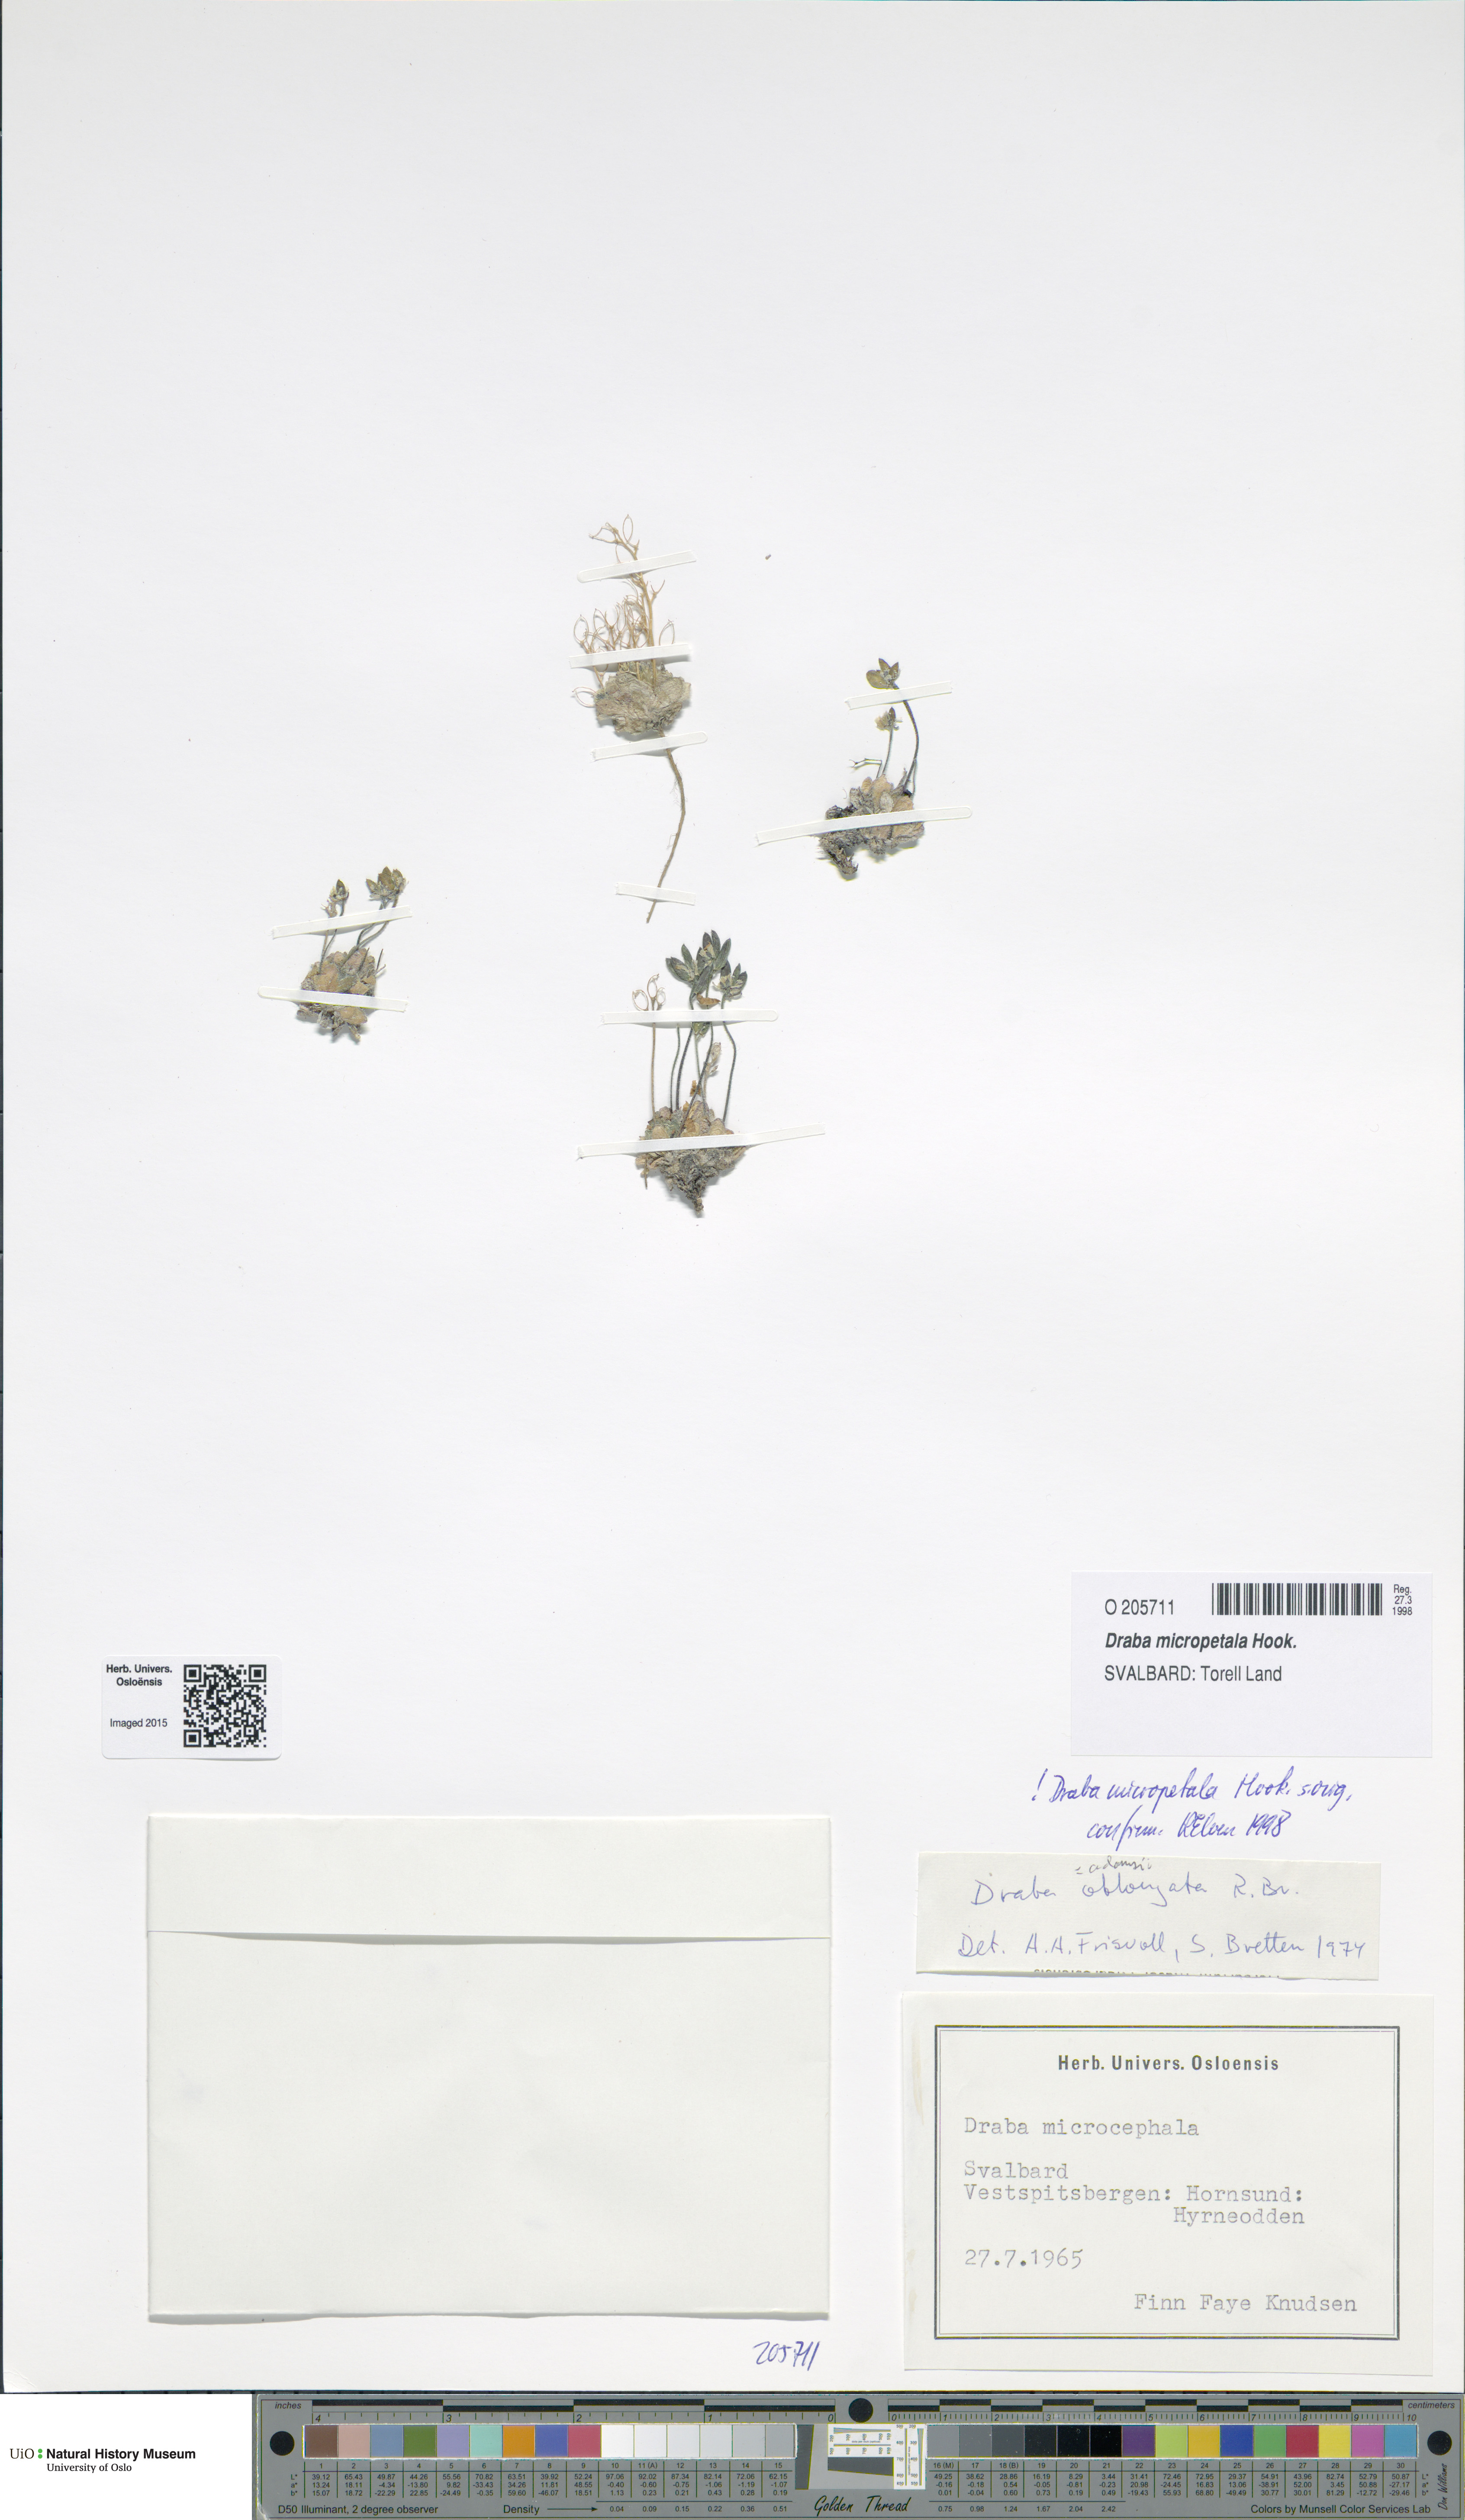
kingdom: Plantae
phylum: Tracheophyta
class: Magnoliopsida
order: Brassicales
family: Brassicaceae
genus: Draba
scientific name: Draba micropetala
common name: Small-flowered draba
